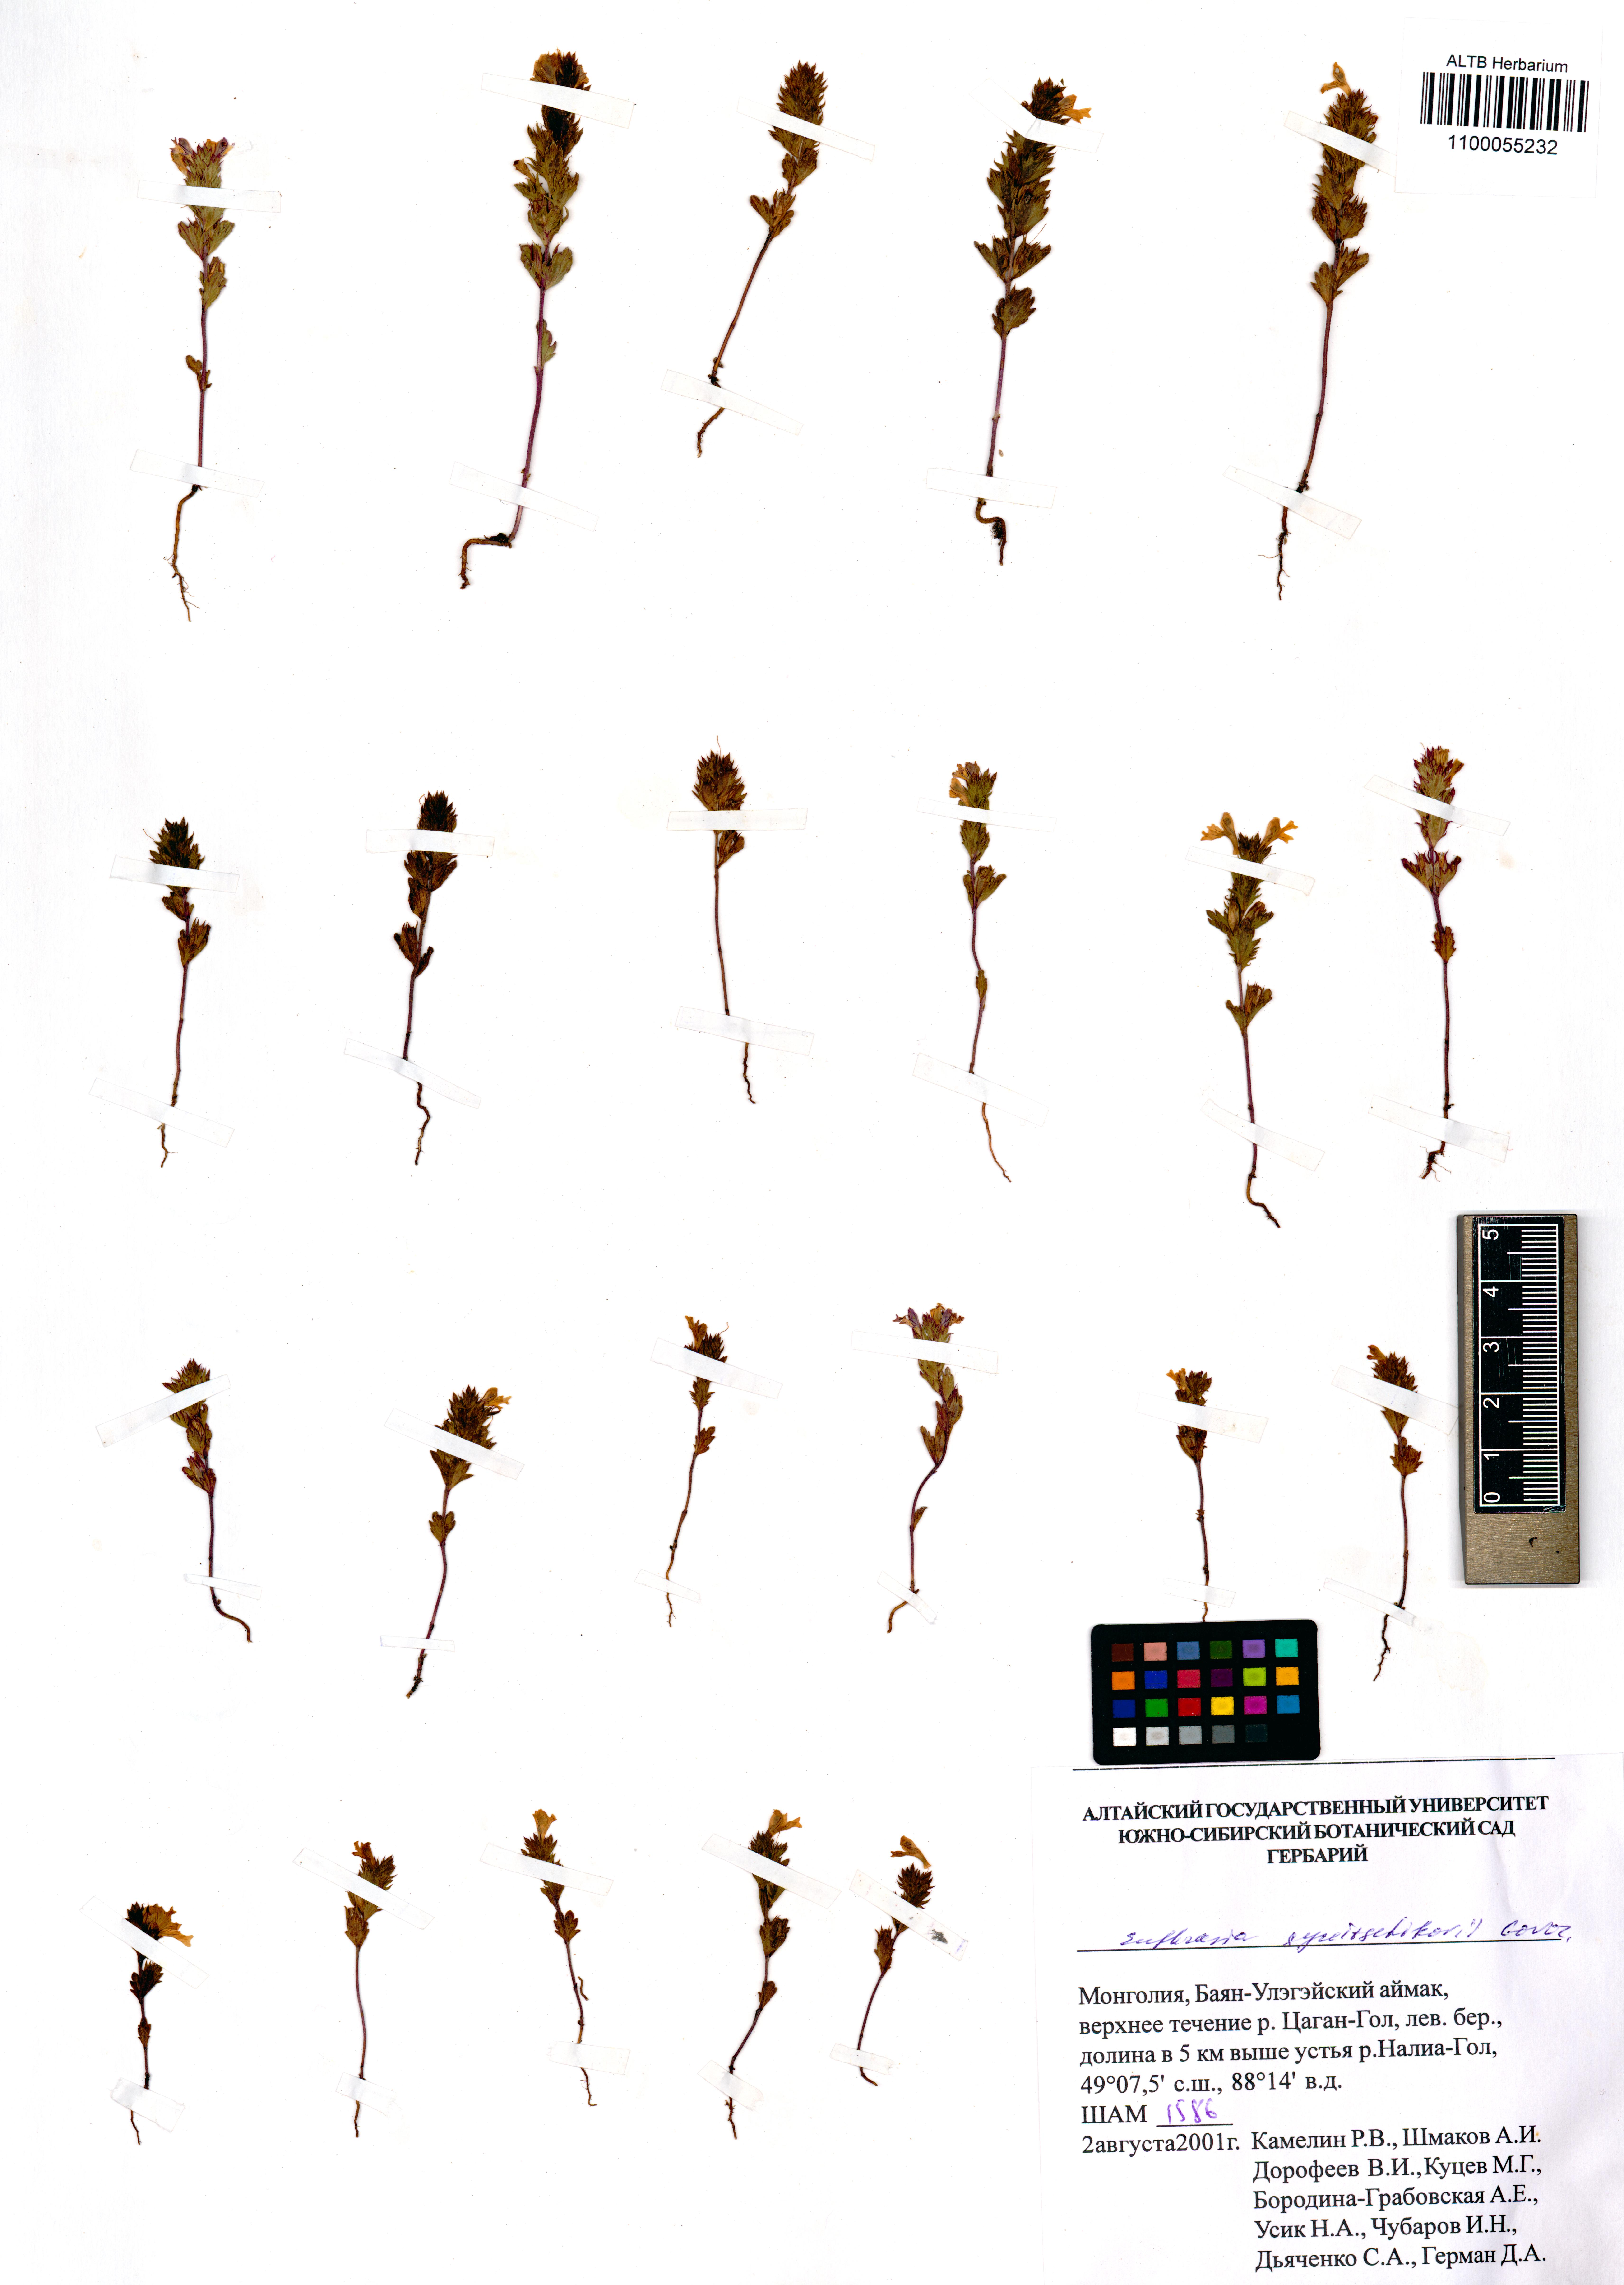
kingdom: Plantae
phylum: Tracheophyta
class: Magnoliopsida
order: Lamiales
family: Orobanchaceae
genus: Euphrasia
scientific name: Euphrasia syreitschikovii
